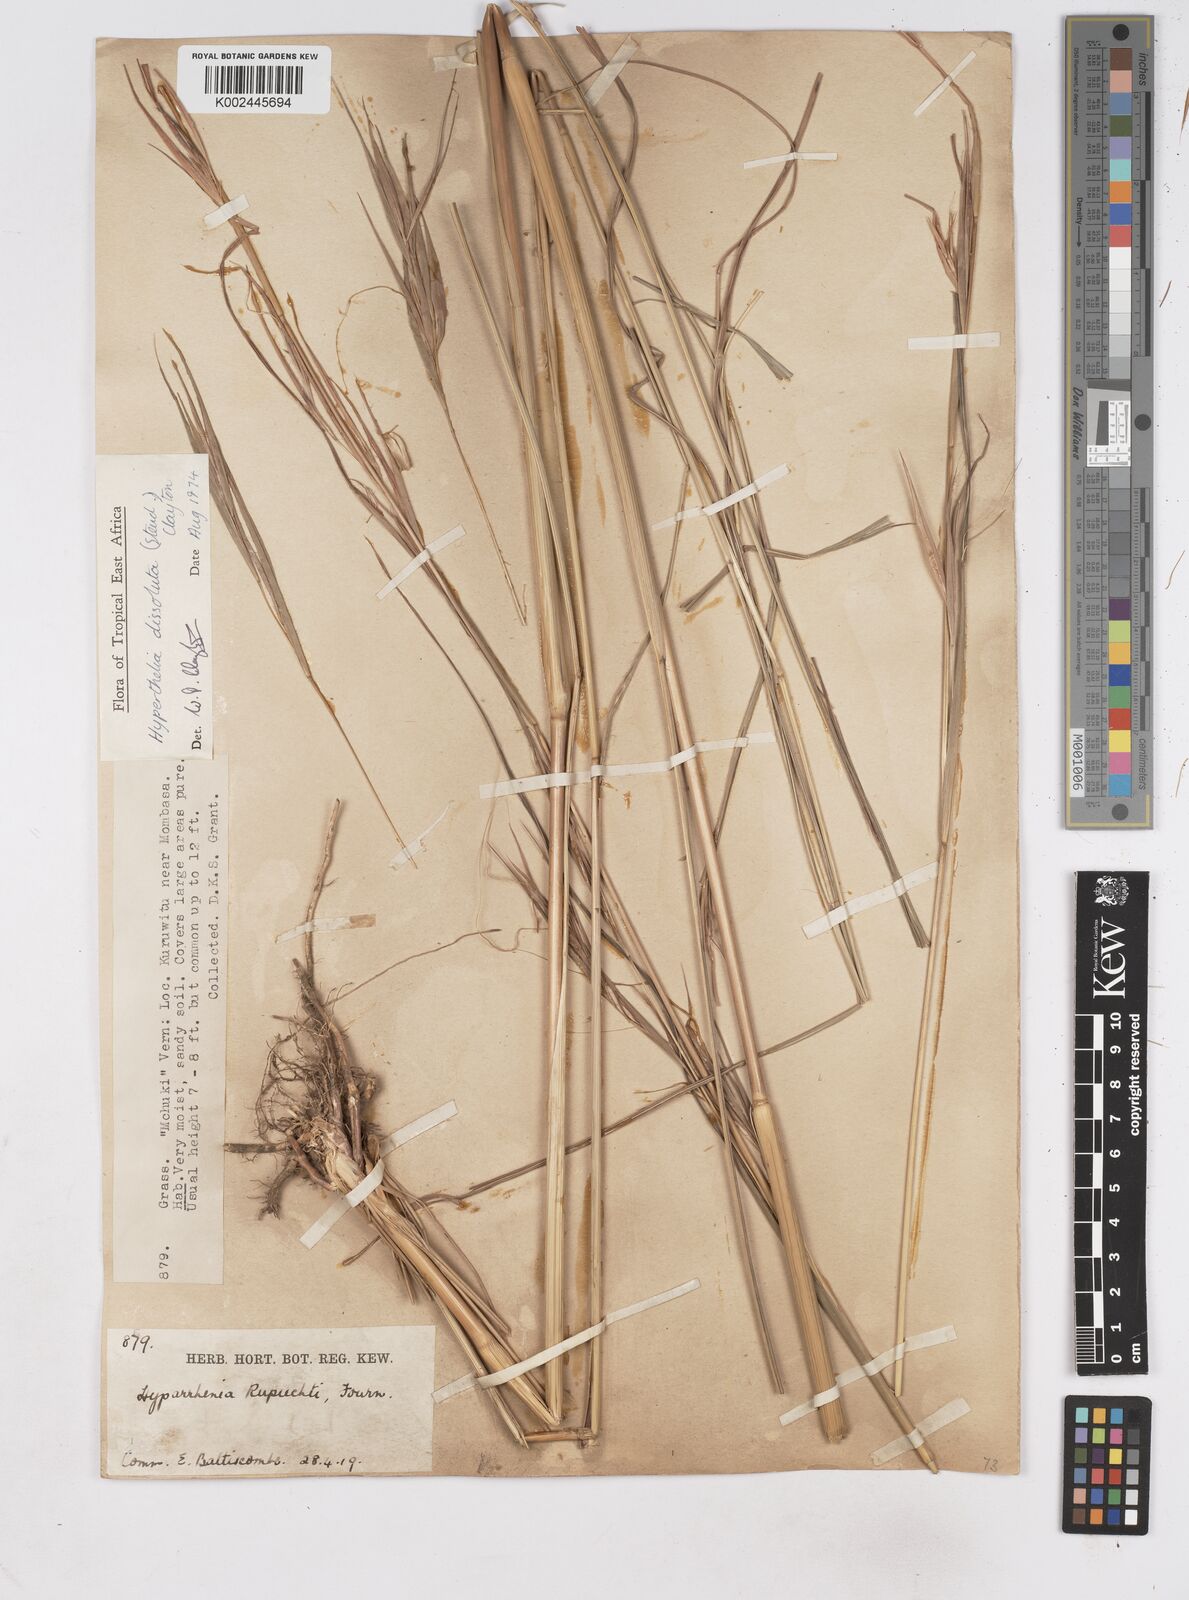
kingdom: Plantae
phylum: Tracheophyta
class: Liliopsida
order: Poales
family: Poaceae
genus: Hyperthelia
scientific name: Hyperthelia dissoluta
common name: Yellow thatching grass
